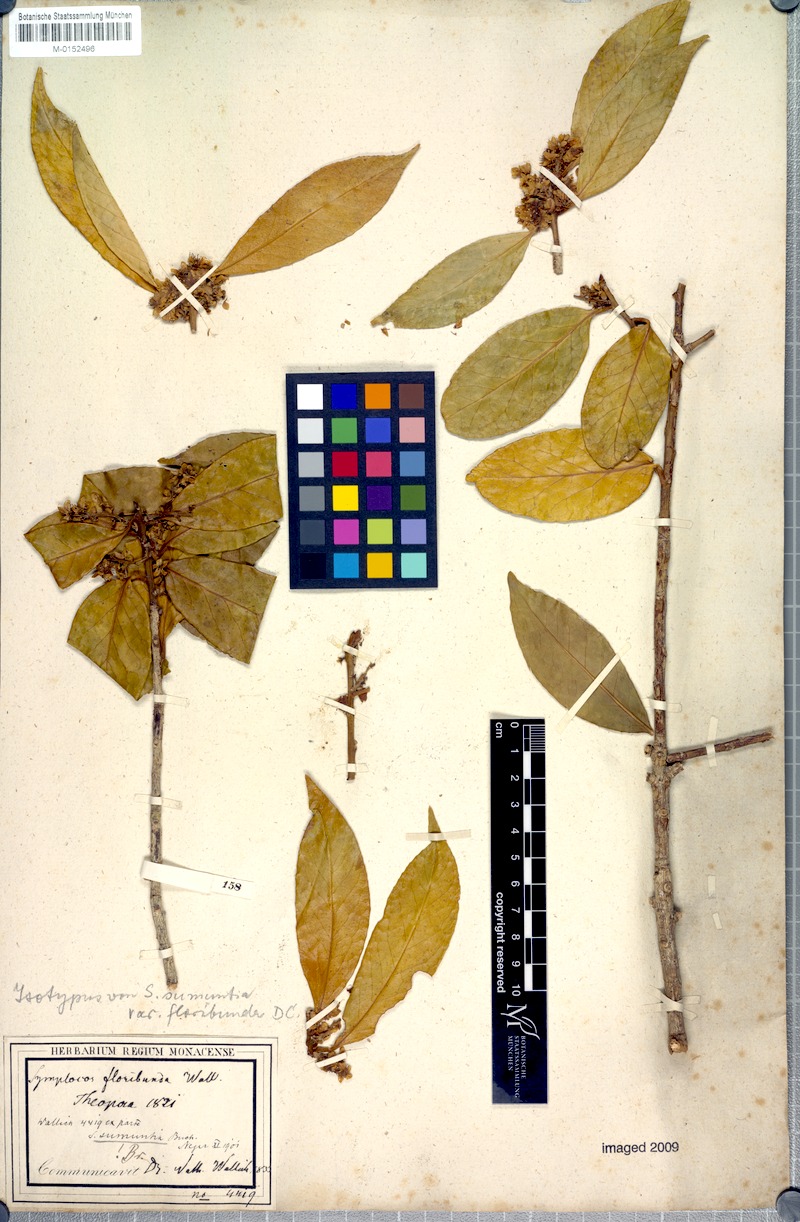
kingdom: Plantae
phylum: Tracheophyta
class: Magnoliopsida
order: Ericales
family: Symplocaceae
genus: Symplocos
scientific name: Symplocos sumuntia
